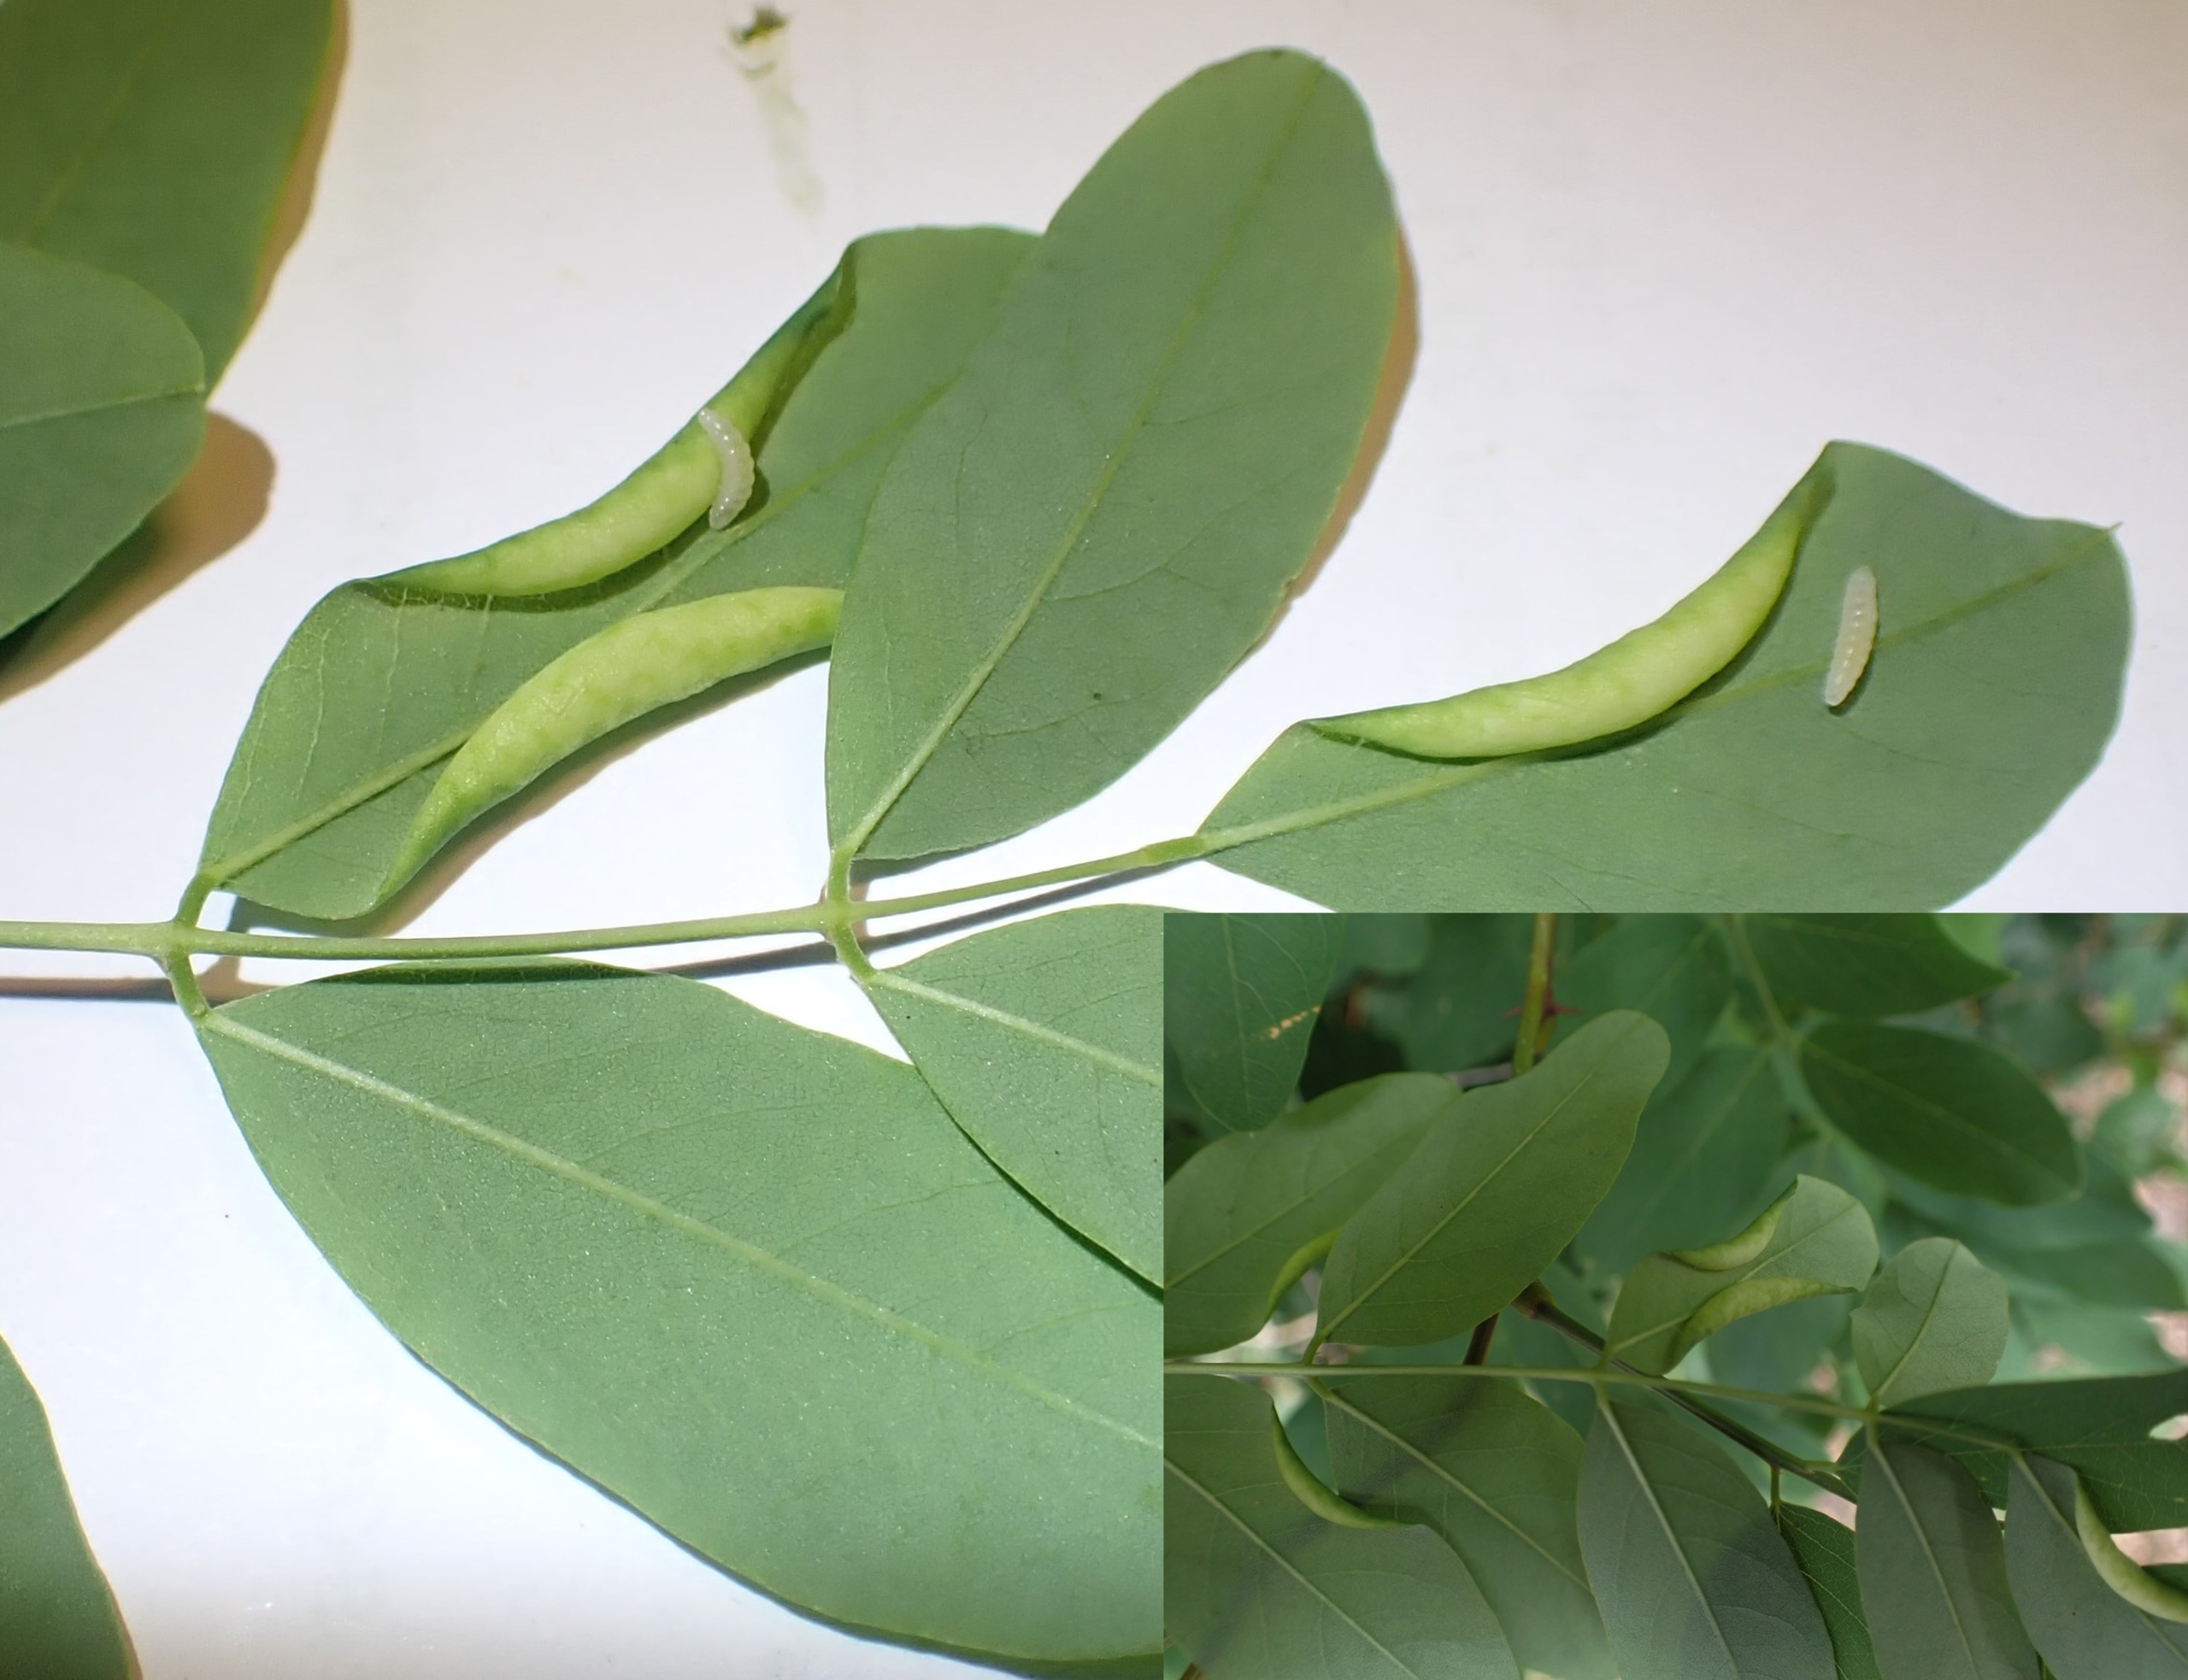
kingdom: Animalia
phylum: Arthropoda
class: Insecta
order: Diptera
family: Cecidomyiidae
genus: Obolodiplosis
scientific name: Obolodiplosis robiniae
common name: Robiniegalmyg
